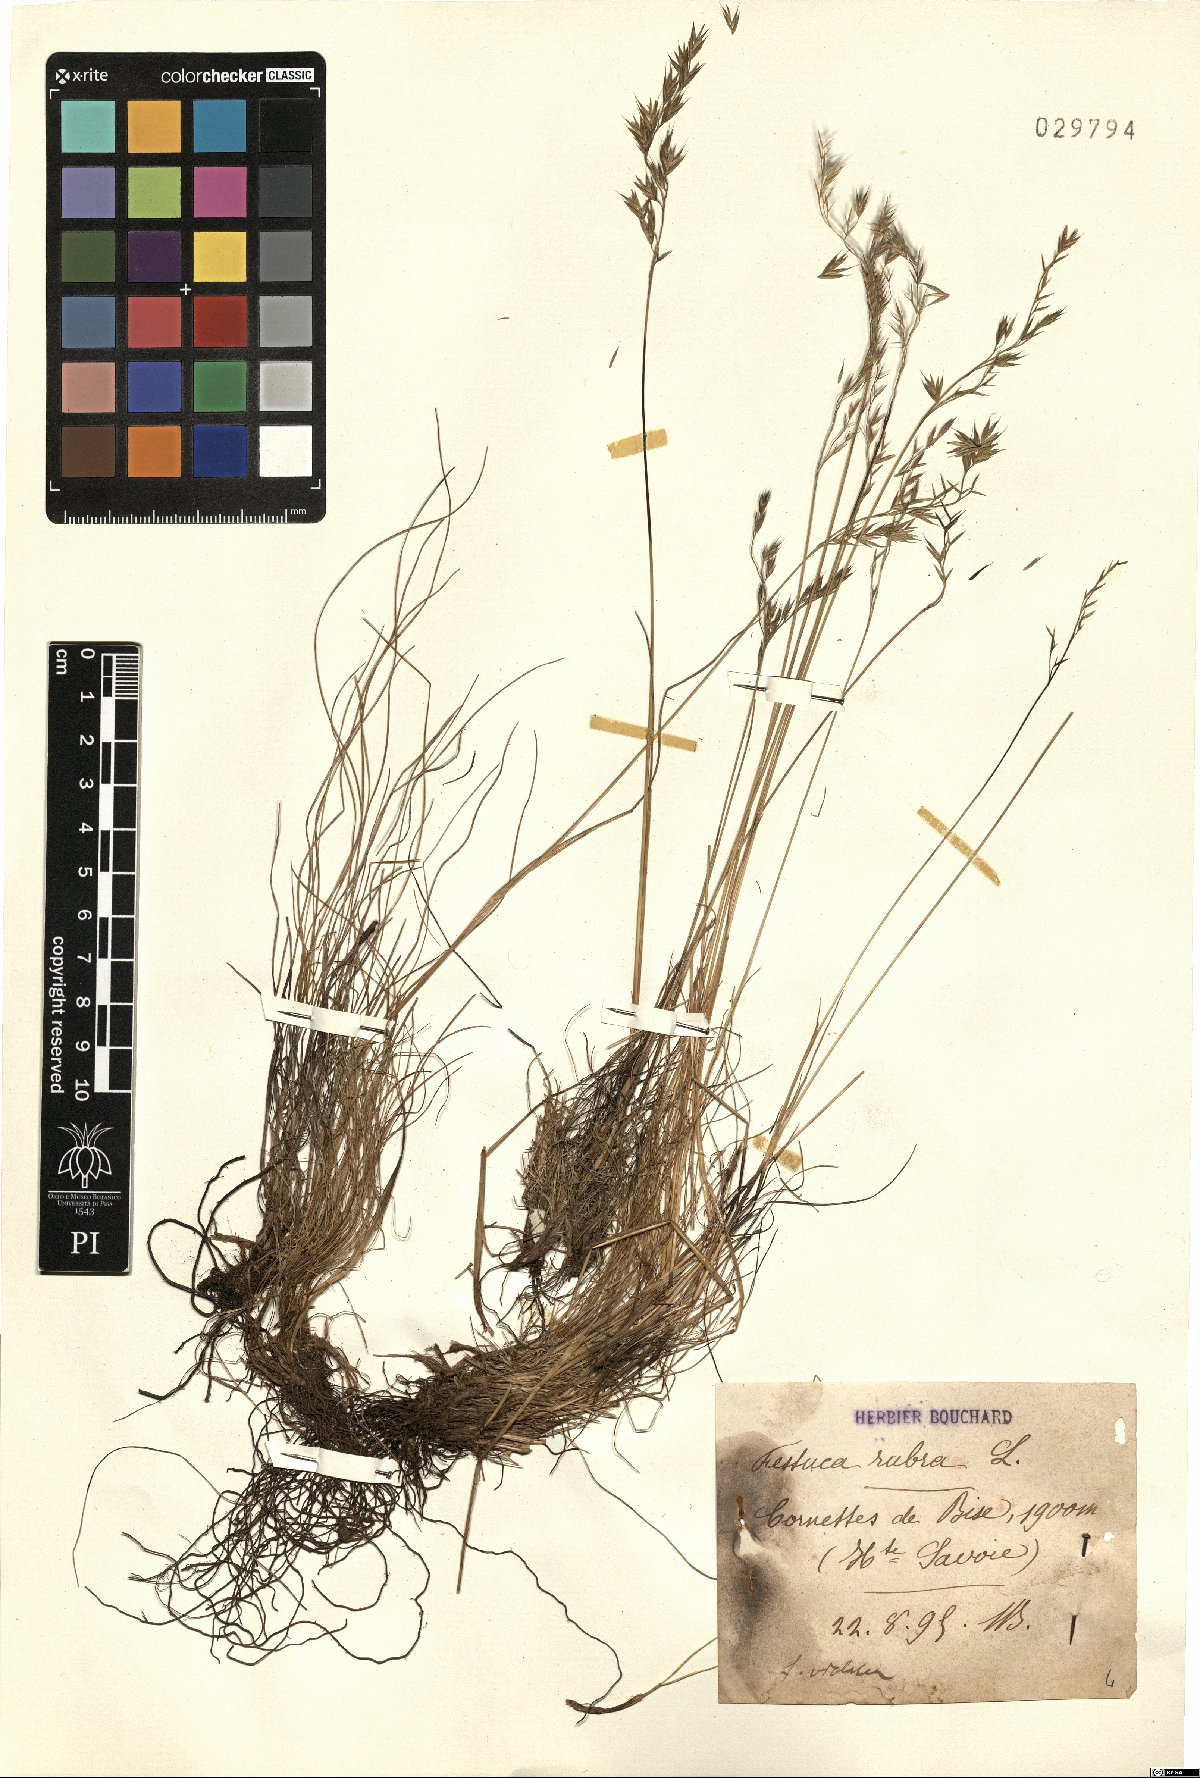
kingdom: Plantae
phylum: Tracheophyta
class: Liliopsida
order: Poales
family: Poaceae
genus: Festuca
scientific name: Festuca rubra
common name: Red fescue
